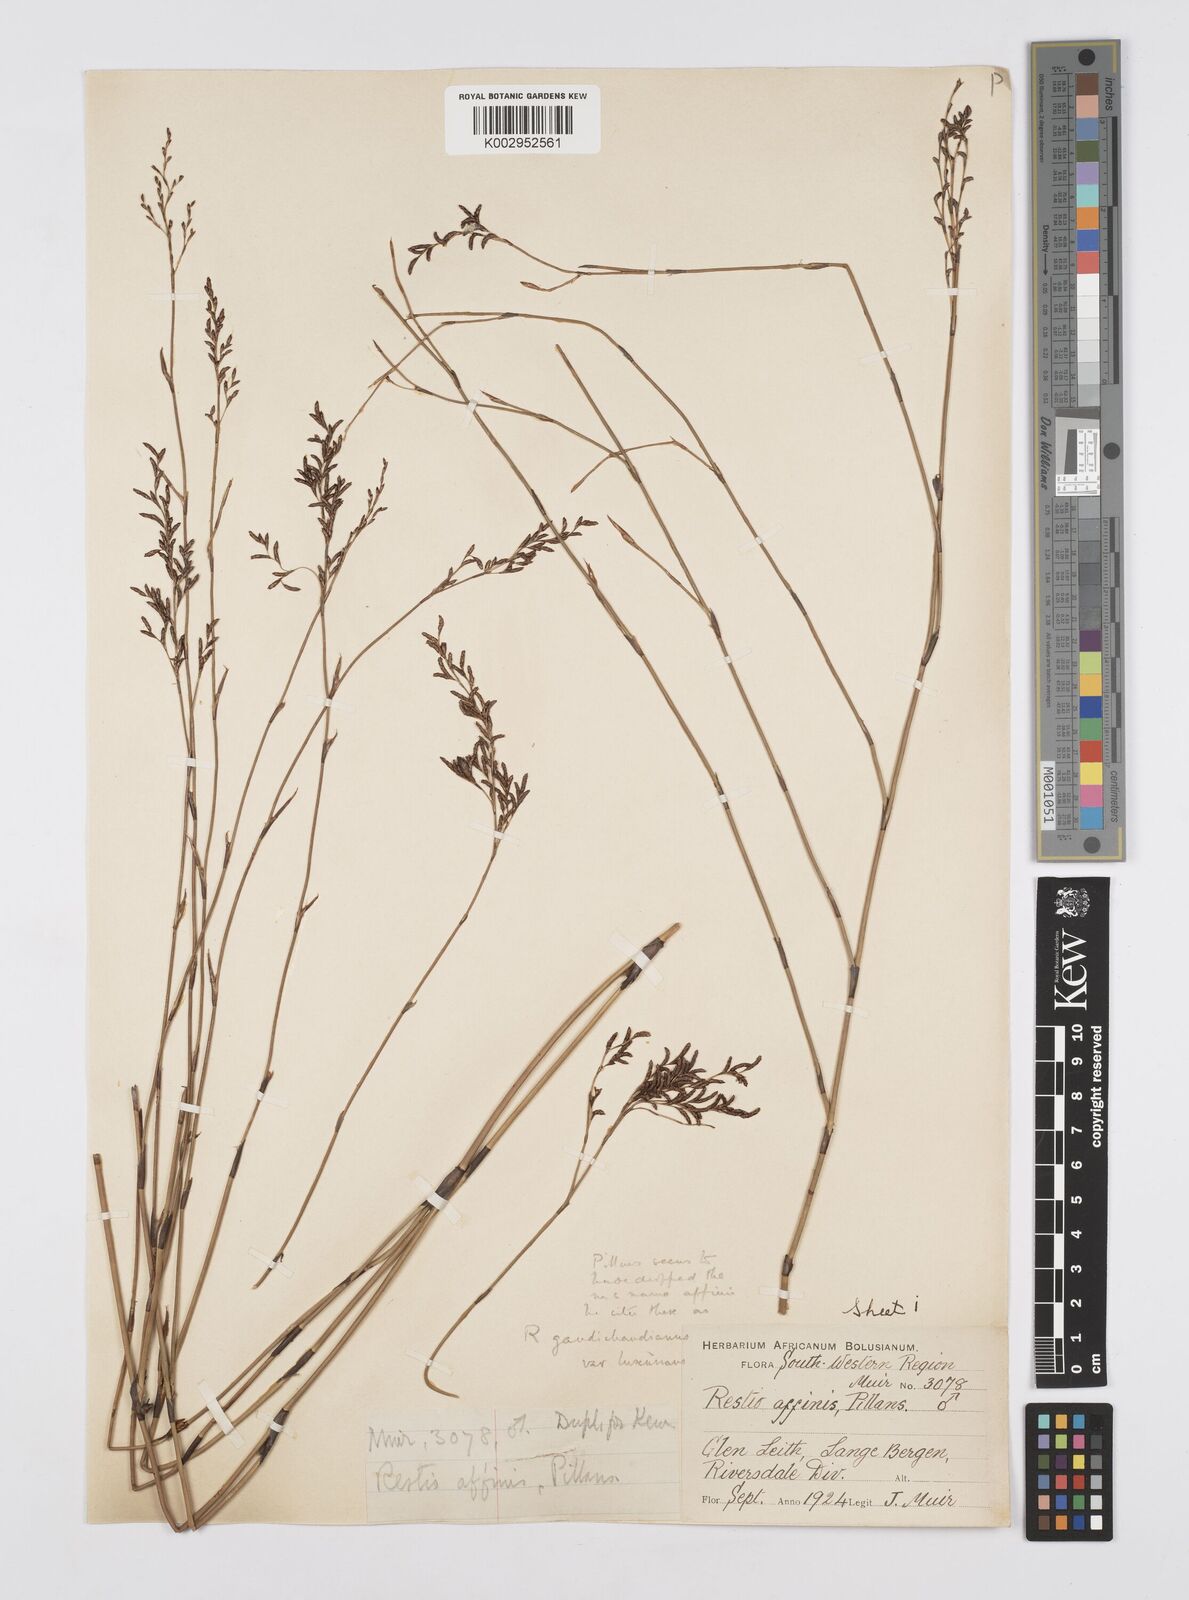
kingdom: Plantae
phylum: Tracheophyta
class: Liliopsida
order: Poales
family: Restionaceae
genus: Restio
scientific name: Restio gaudichaudianus
